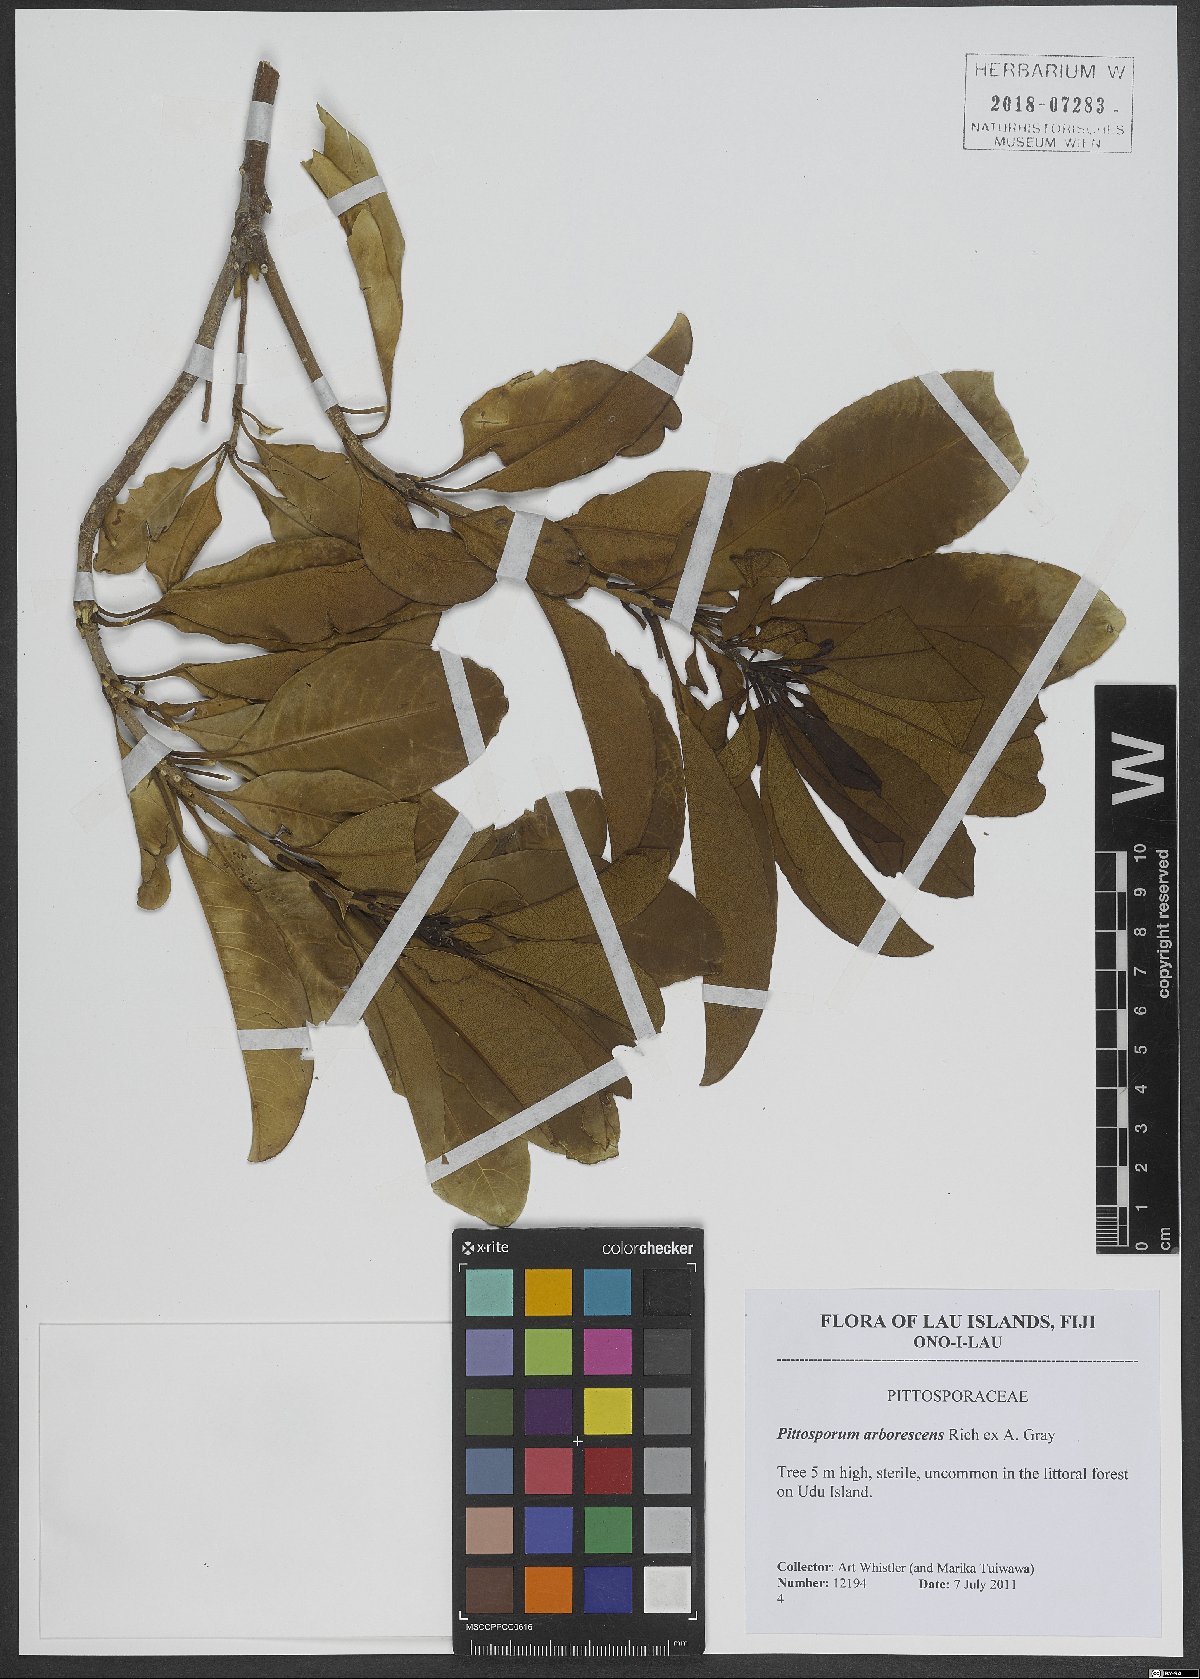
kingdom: Plantae
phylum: Tracheophyta
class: Magnoliopsida
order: Apiales
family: Pittosporaceae
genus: Pittosporum
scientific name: Pittosporum arborescens
